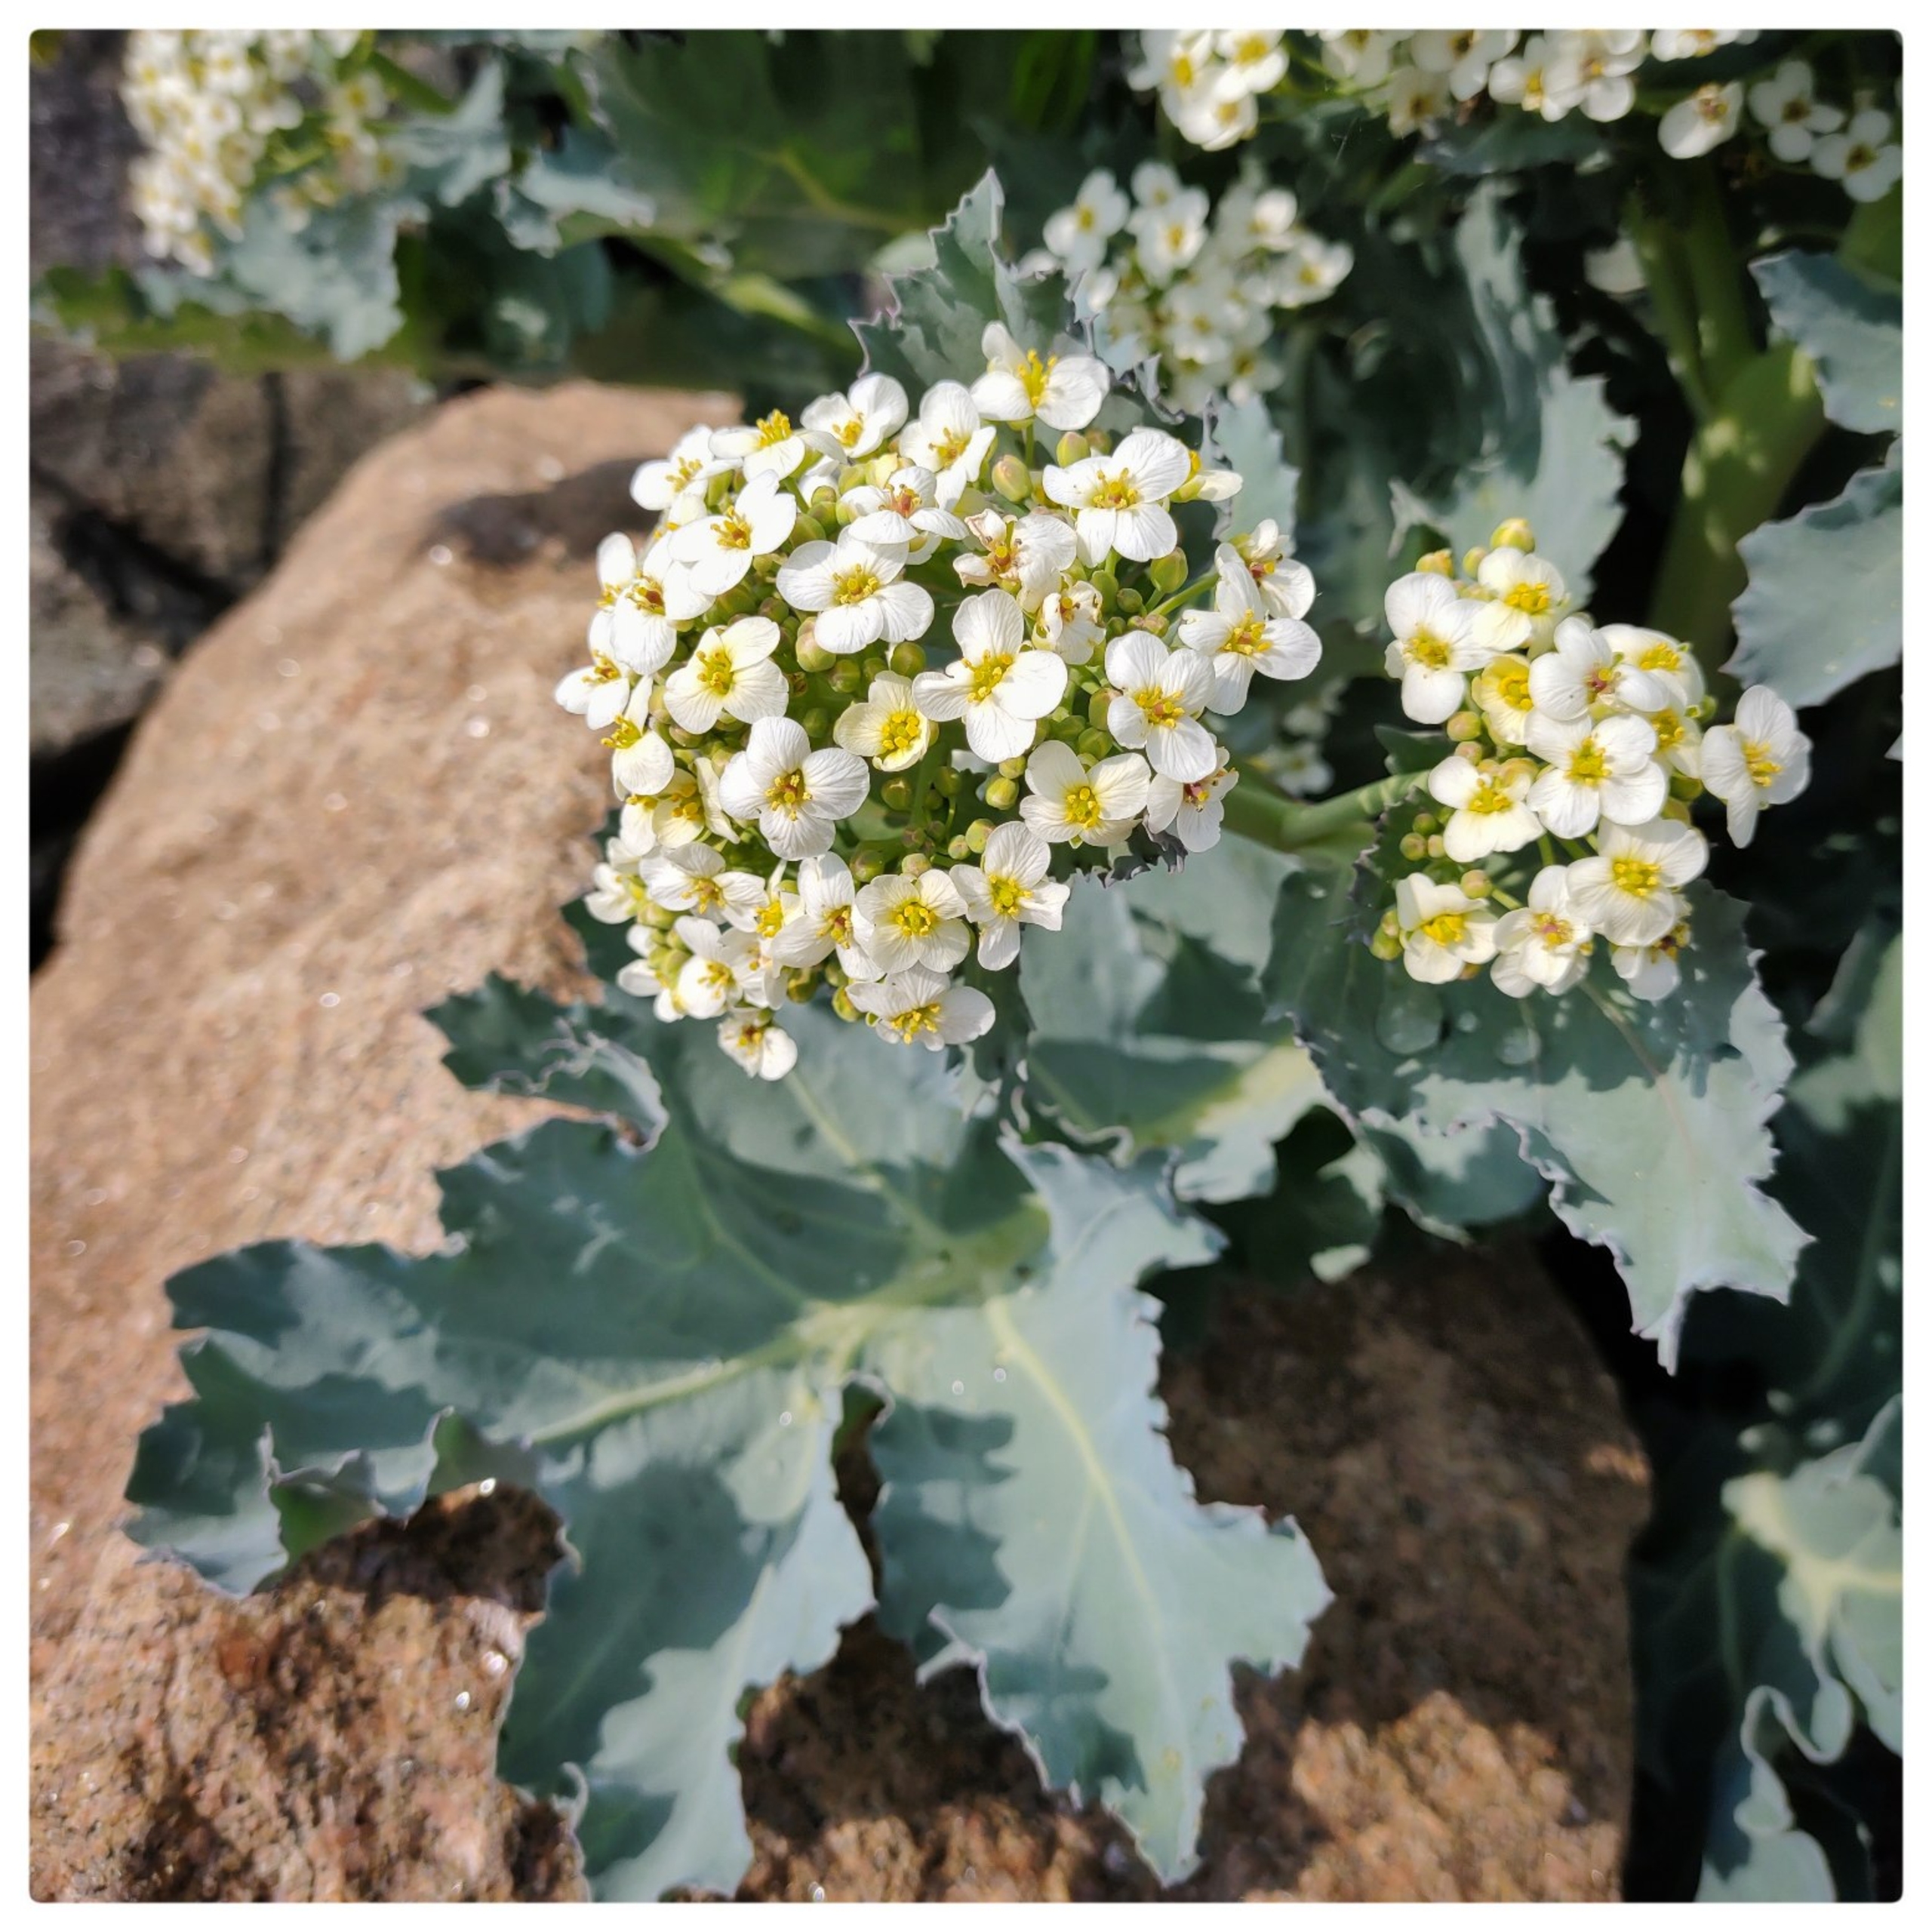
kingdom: Plantae
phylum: Tracheophyta
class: Magnoliopsida
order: Brassicales
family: Brassicaceae
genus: Crambe
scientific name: Crambe maritima
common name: Strandkål
